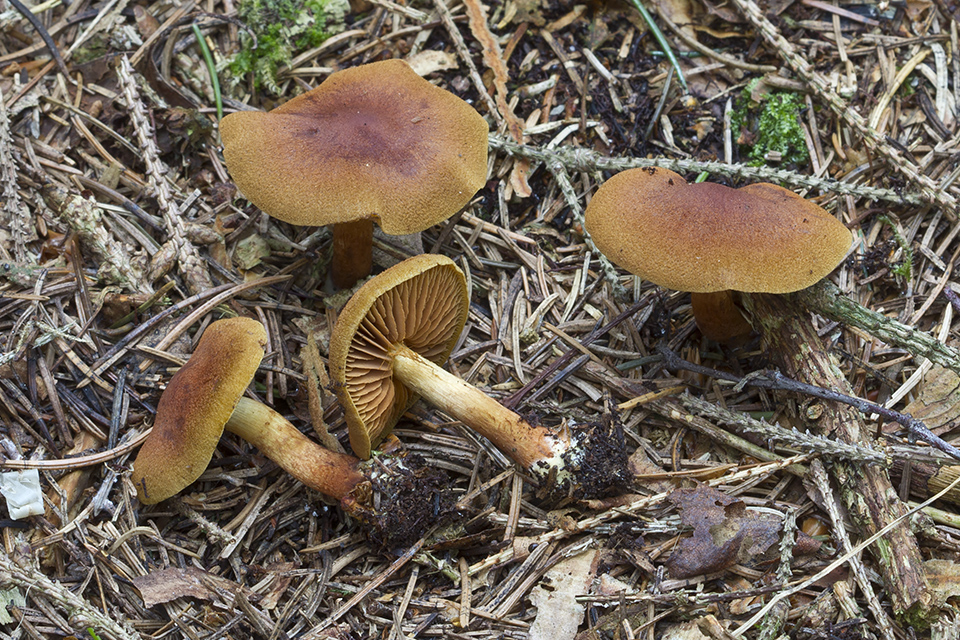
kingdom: Fungi
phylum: Basidiomycota
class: Agaricomycetes
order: Agaricales
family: Cortinariaceae
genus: Cortinarius
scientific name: Cortinarius lignicola
